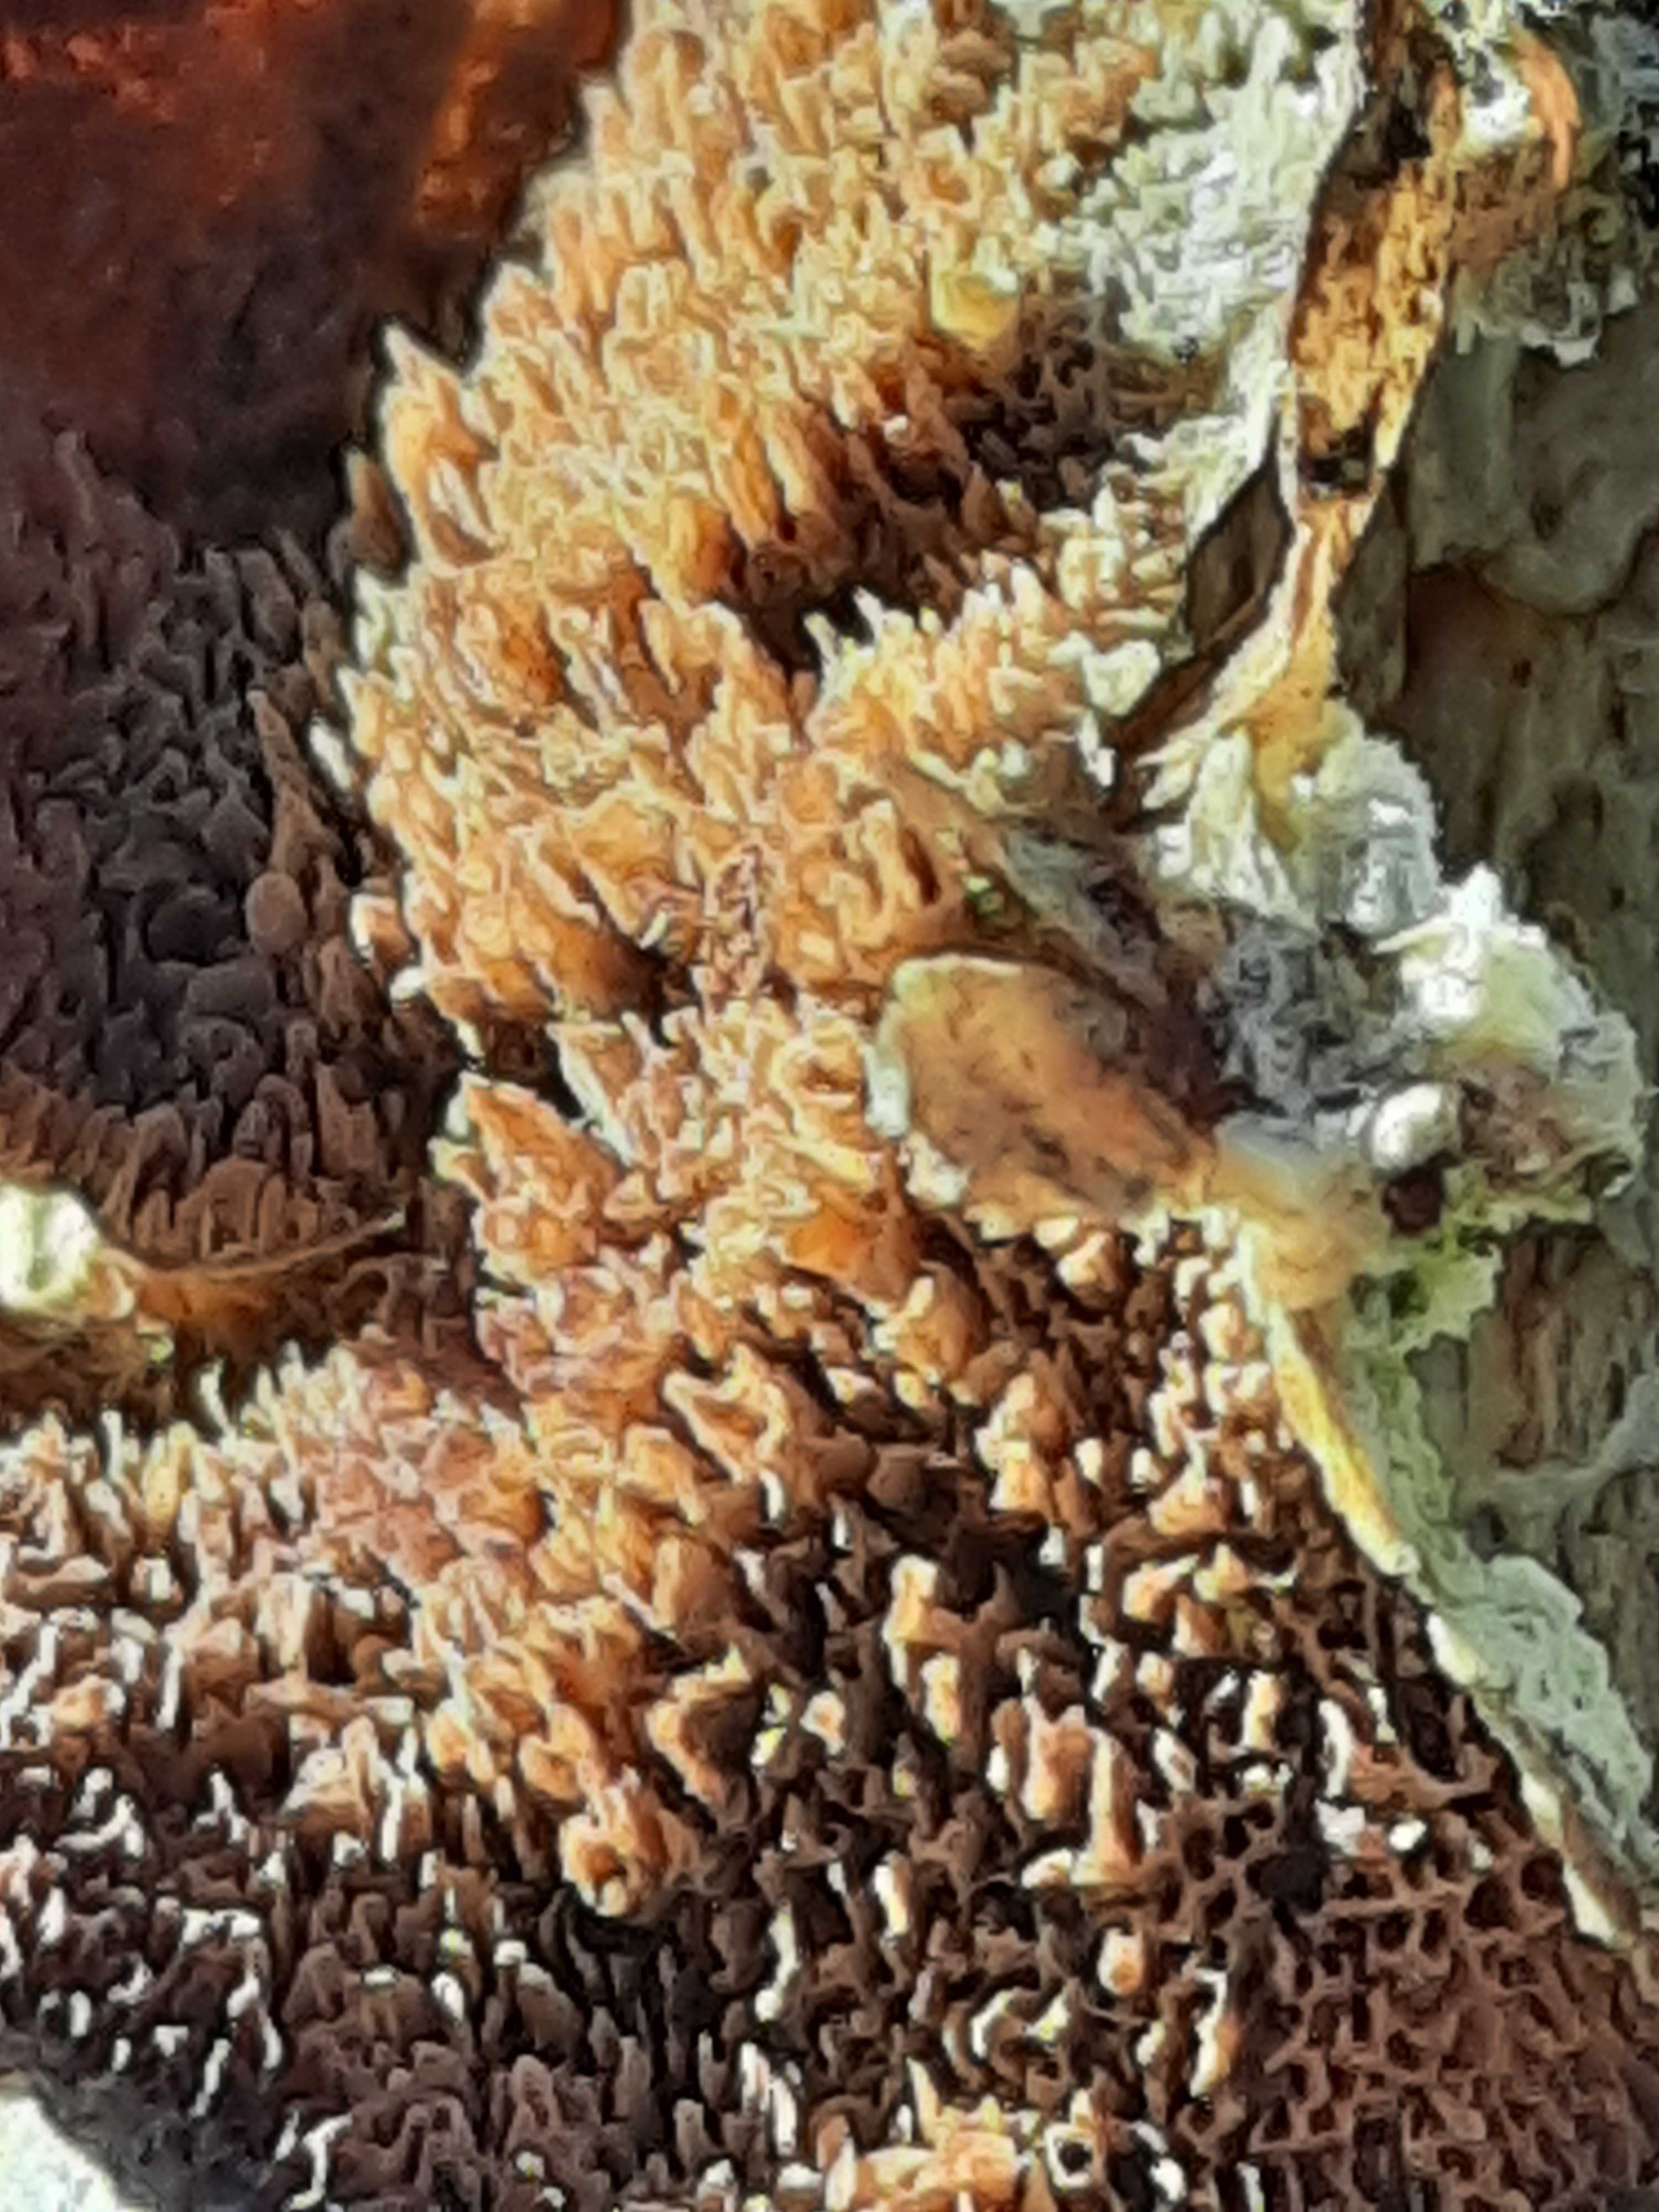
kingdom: Fungi
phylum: Basidiomycota
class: Agaricomycetes
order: Hymenochaetales
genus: Trichaptum
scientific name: Trichaptum fuscoviolaceum
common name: tandet violporesvamp
